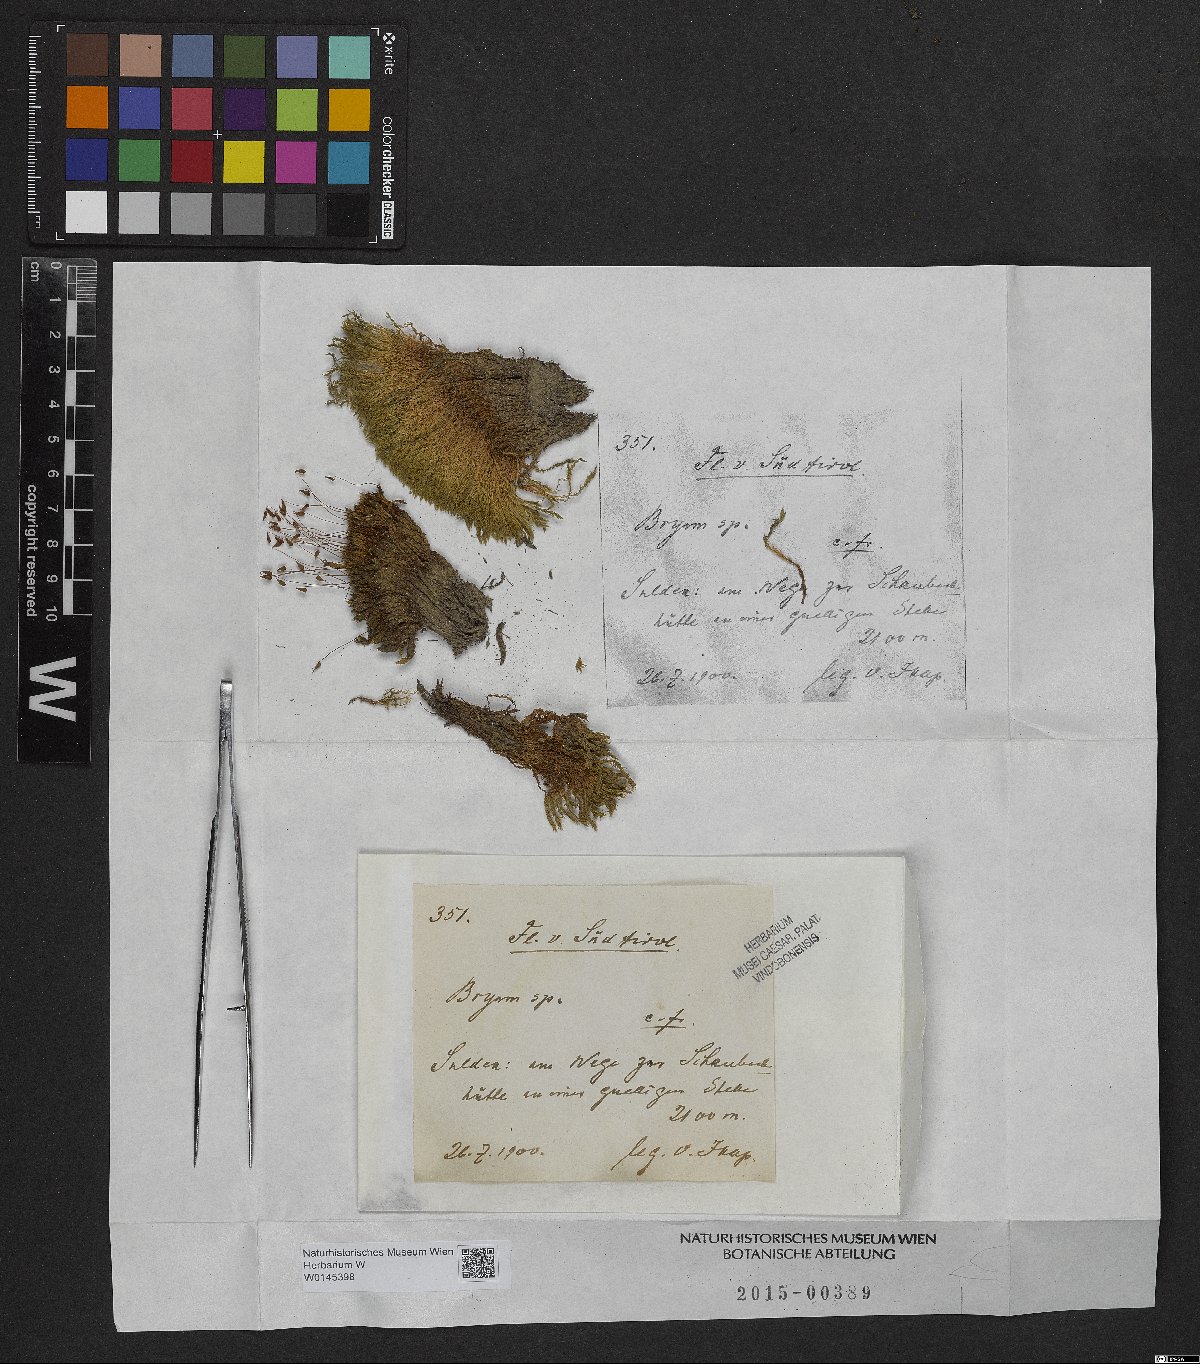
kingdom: Plantae
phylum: Bryophyta
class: Bryopsida
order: Bryales
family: Bryaceae
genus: Bryum
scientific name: Bryum
